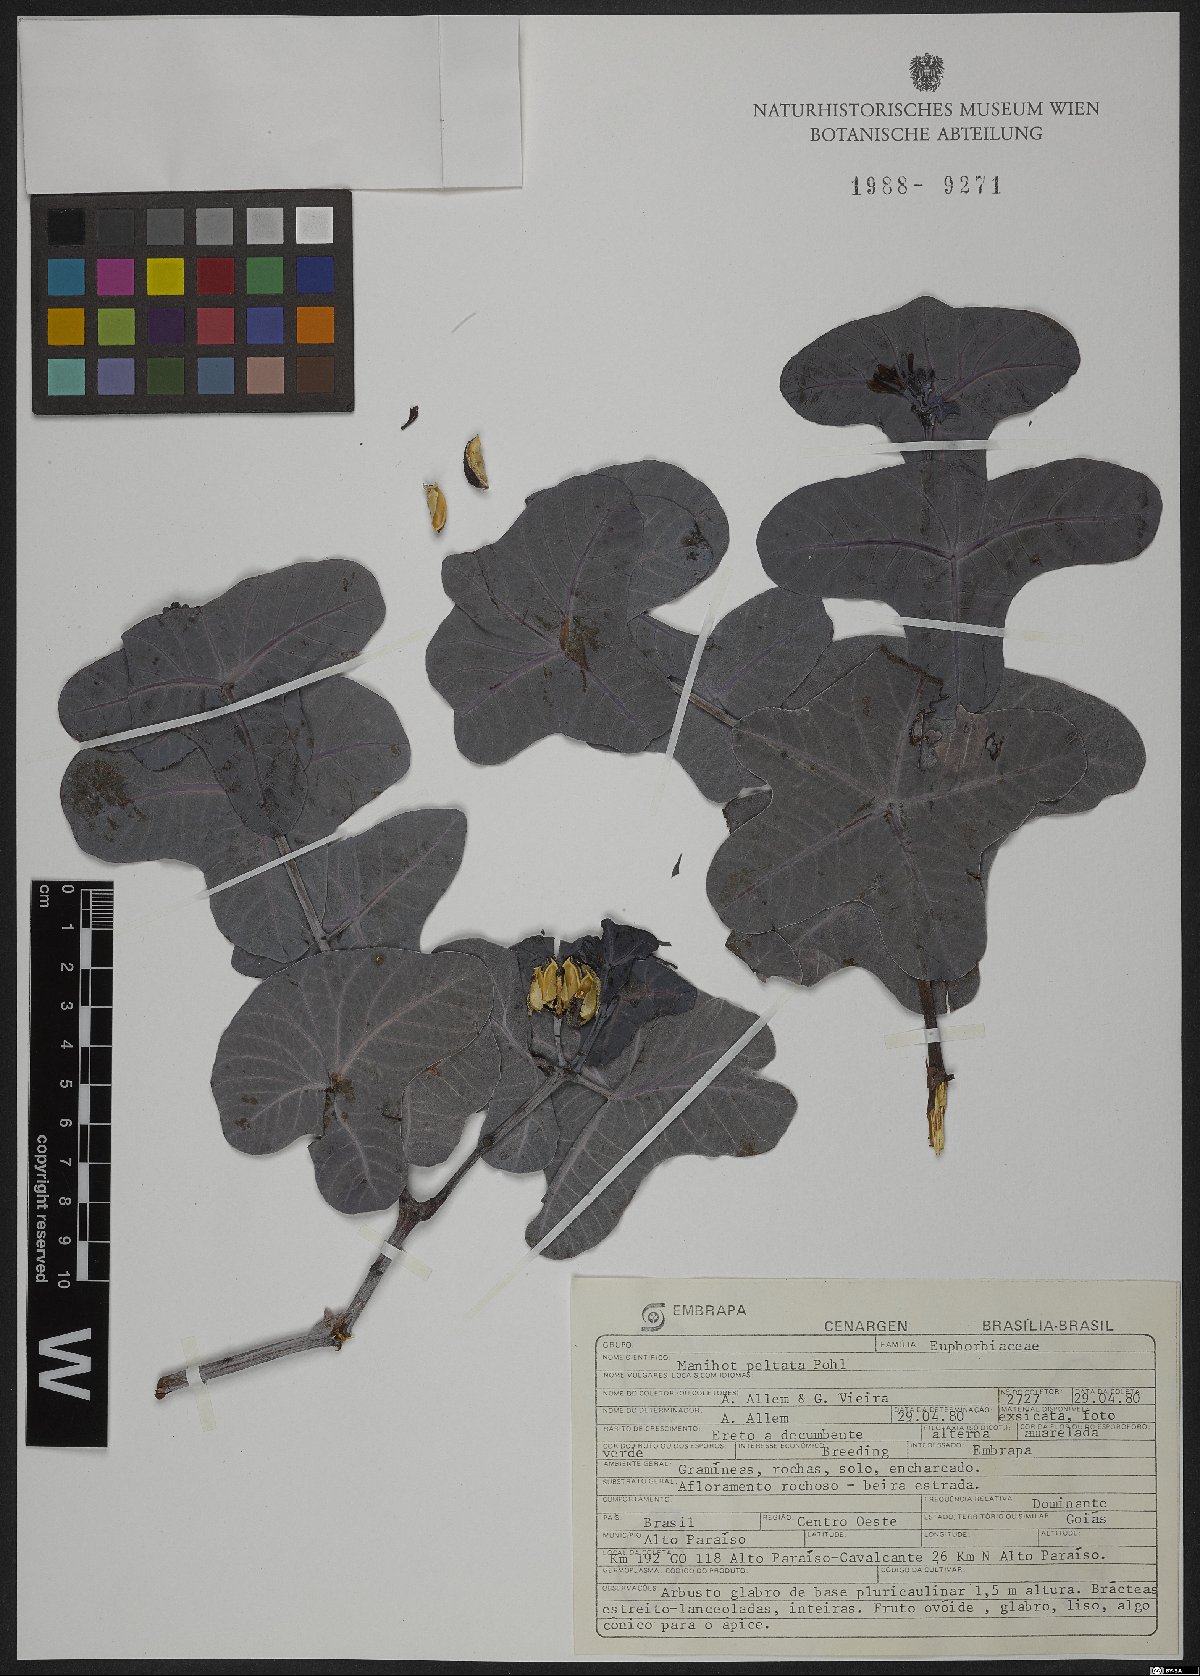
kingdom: Plantae
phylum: Tracheophyta
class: Magnoliopsida
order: Malpighiales
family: Euphorbiaceae
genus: Manihot
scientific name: Manihot peltata
